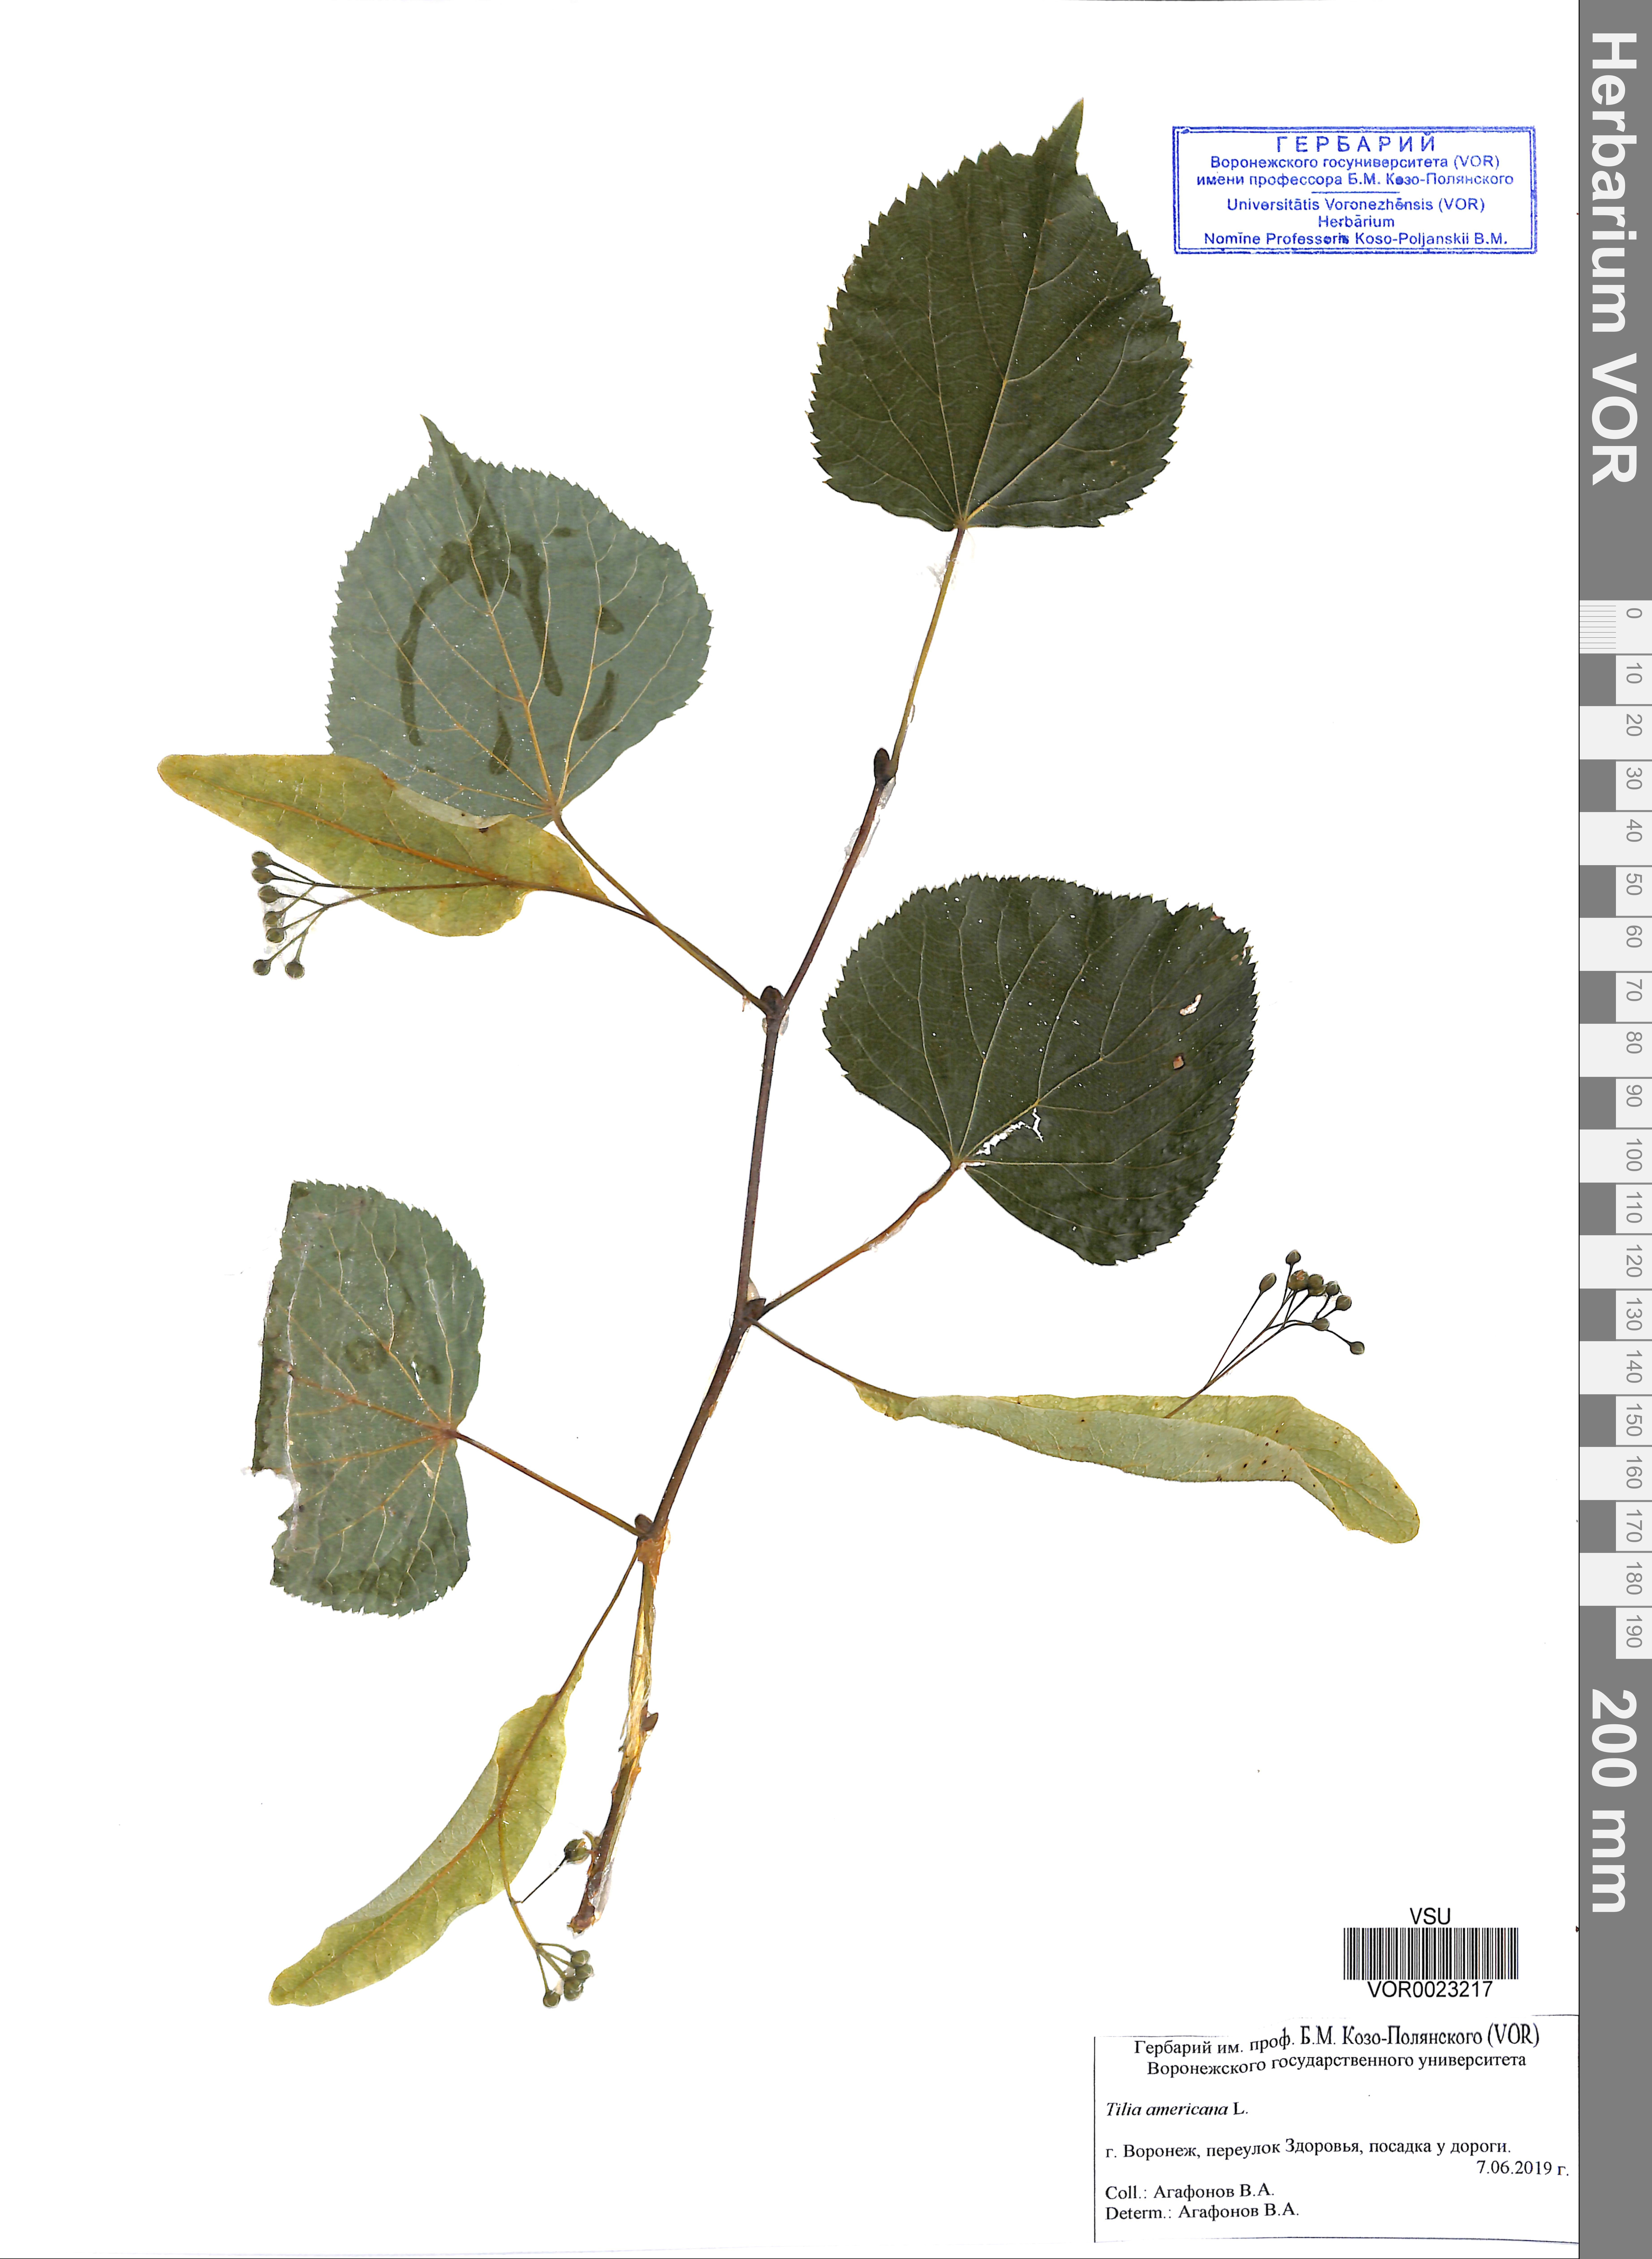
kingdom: Plantae
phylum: Tracheophyta
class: Magnoliopsida
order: Malvales
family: Malvaceae
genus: Tilia
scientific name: Tilia americana
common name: Basswood
